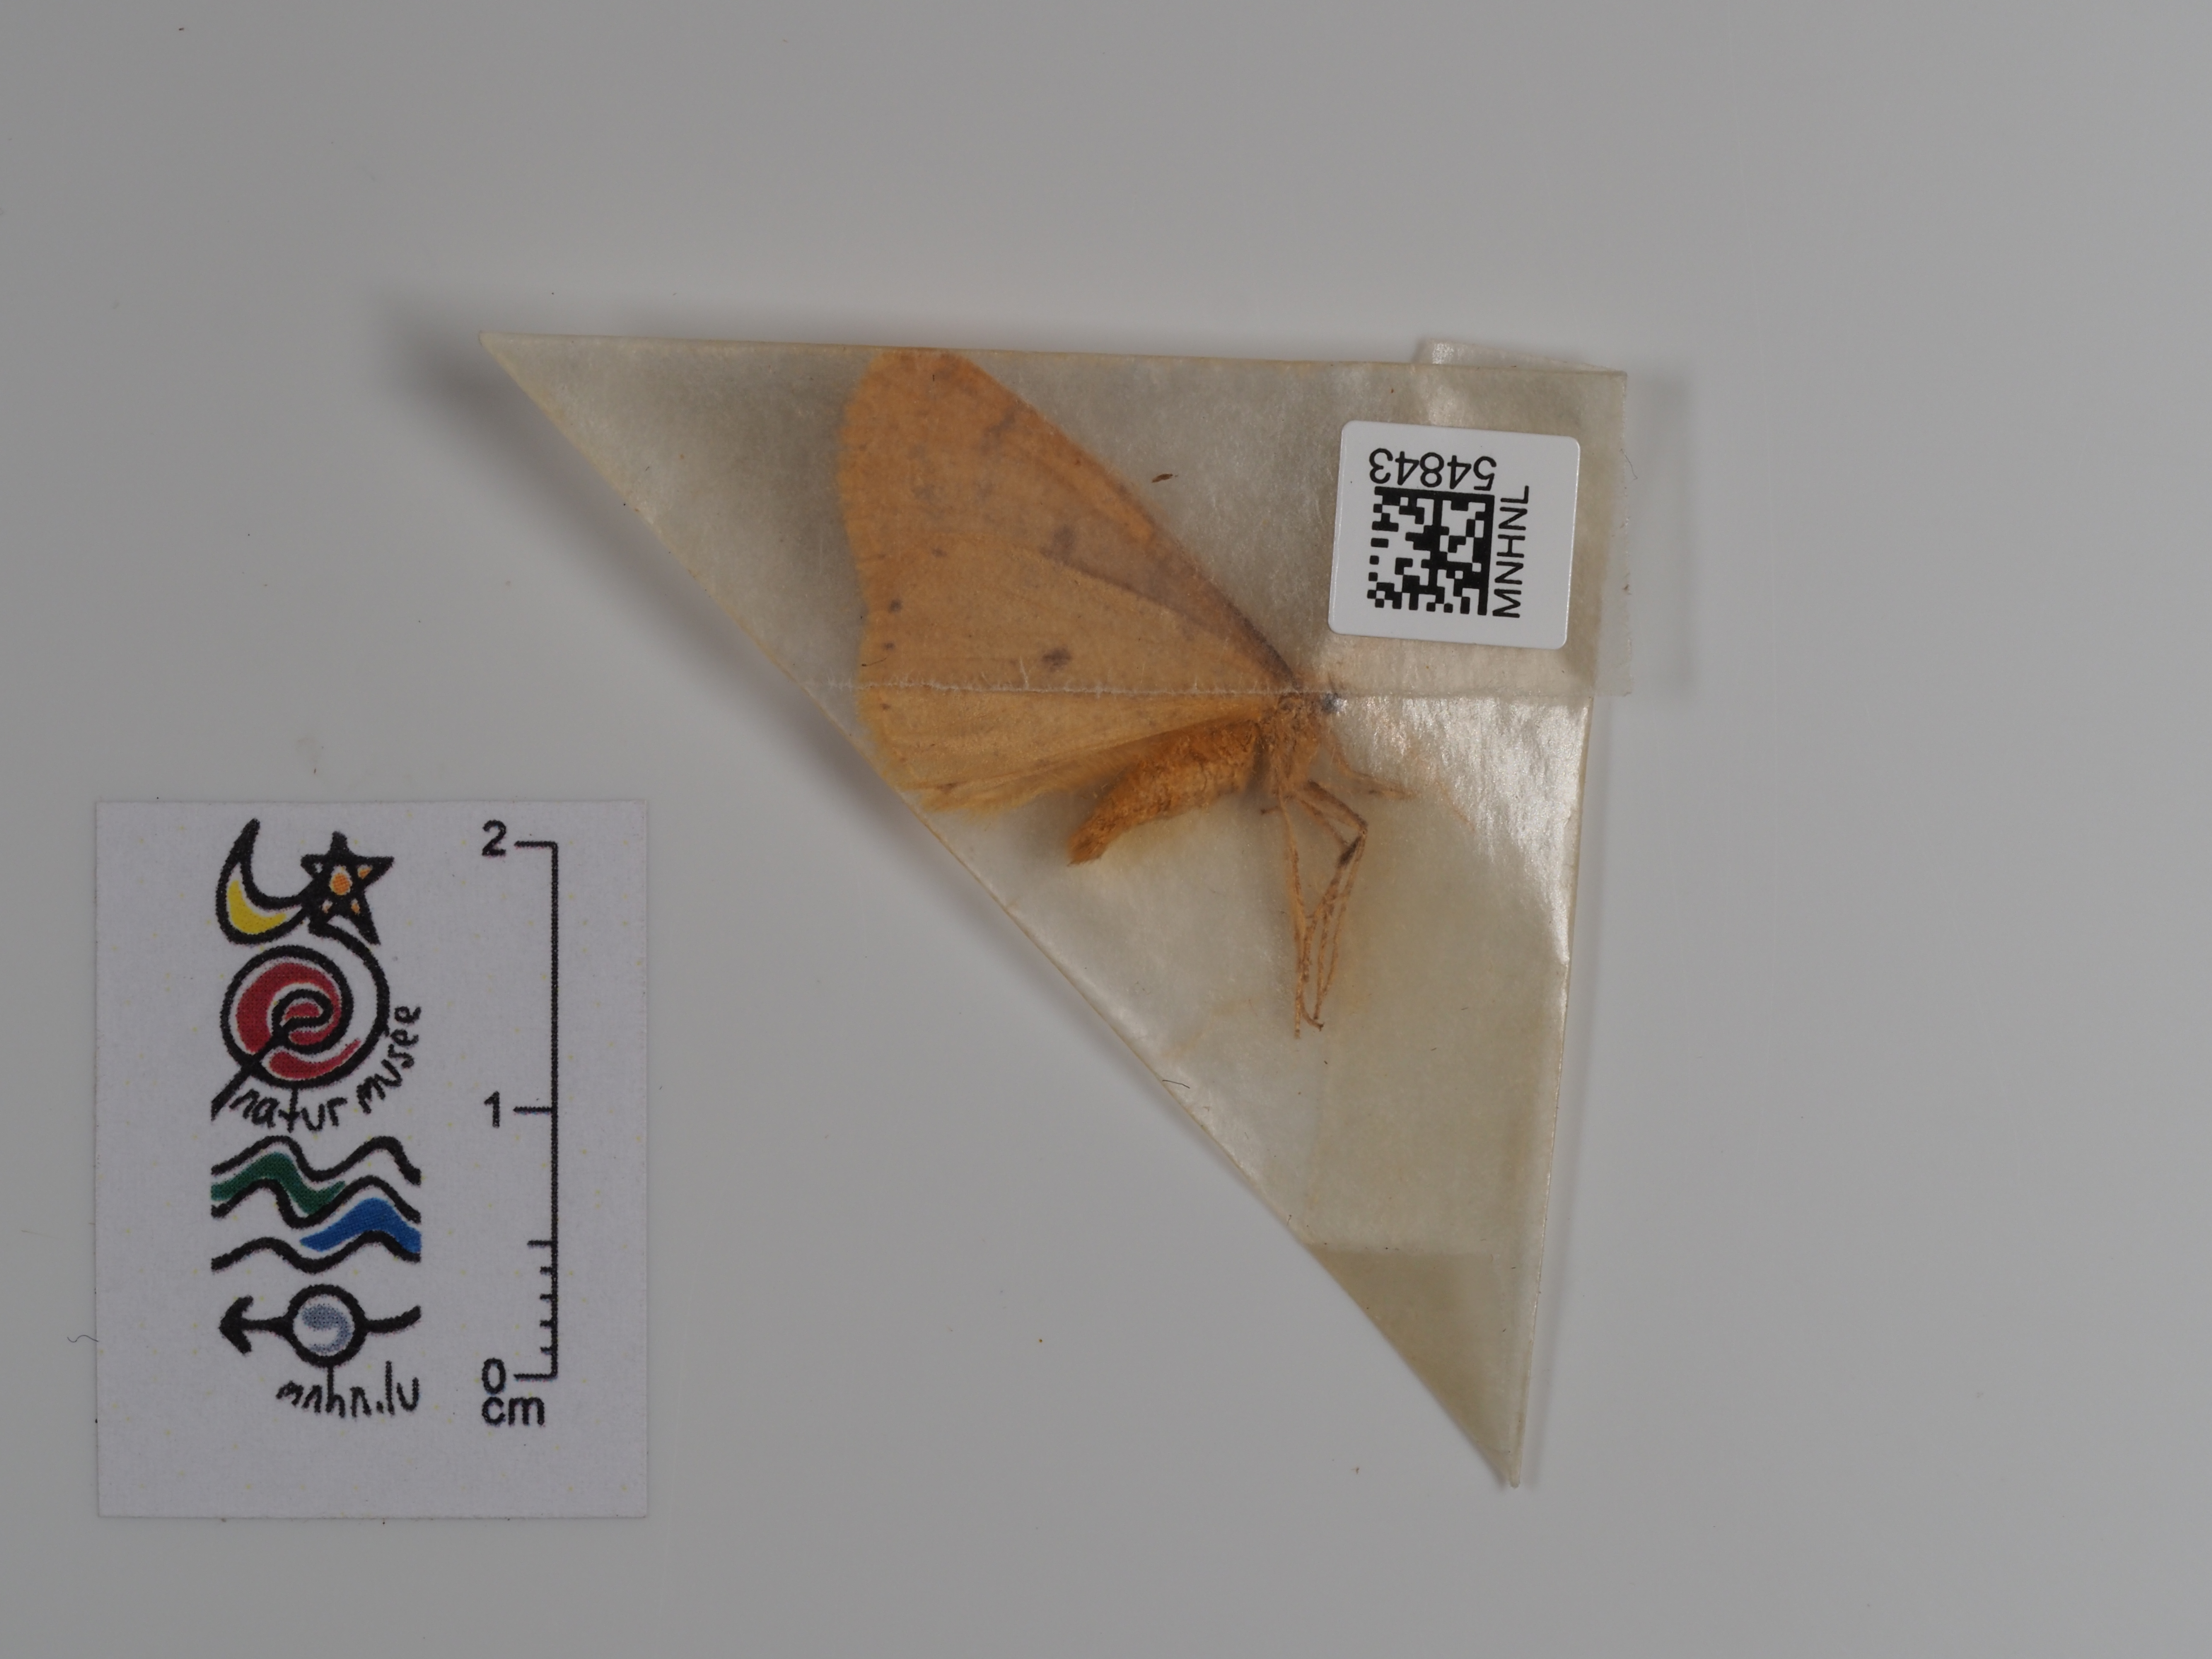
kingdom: Animalia
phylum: Arthropoda
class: Insecta
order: Lepidoptera
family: Geometridae
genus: Agriopis
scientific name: Agriopis aurantiaria
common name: Scarce umber
